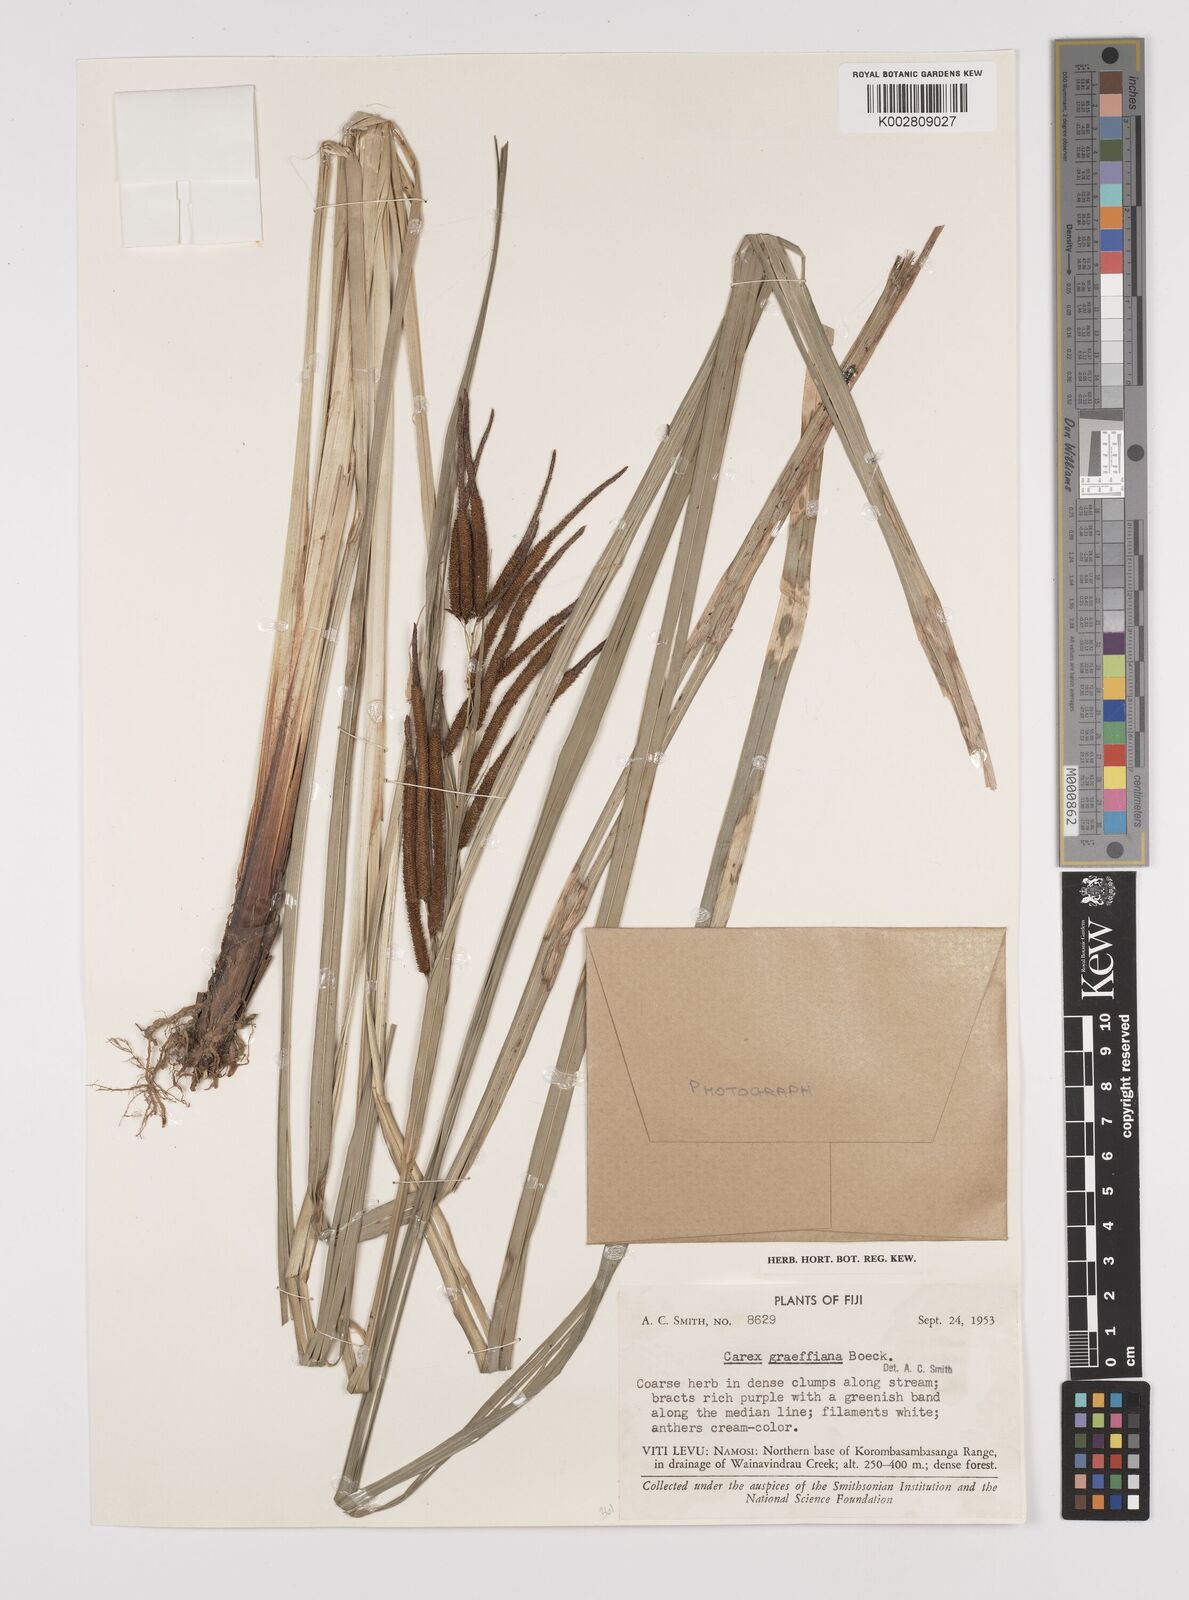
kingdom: Plantae
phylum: Tracheophyta
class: Liliopsida
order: Poales
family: Cyperaceae
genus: Carex
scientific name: Carex graeffeana
